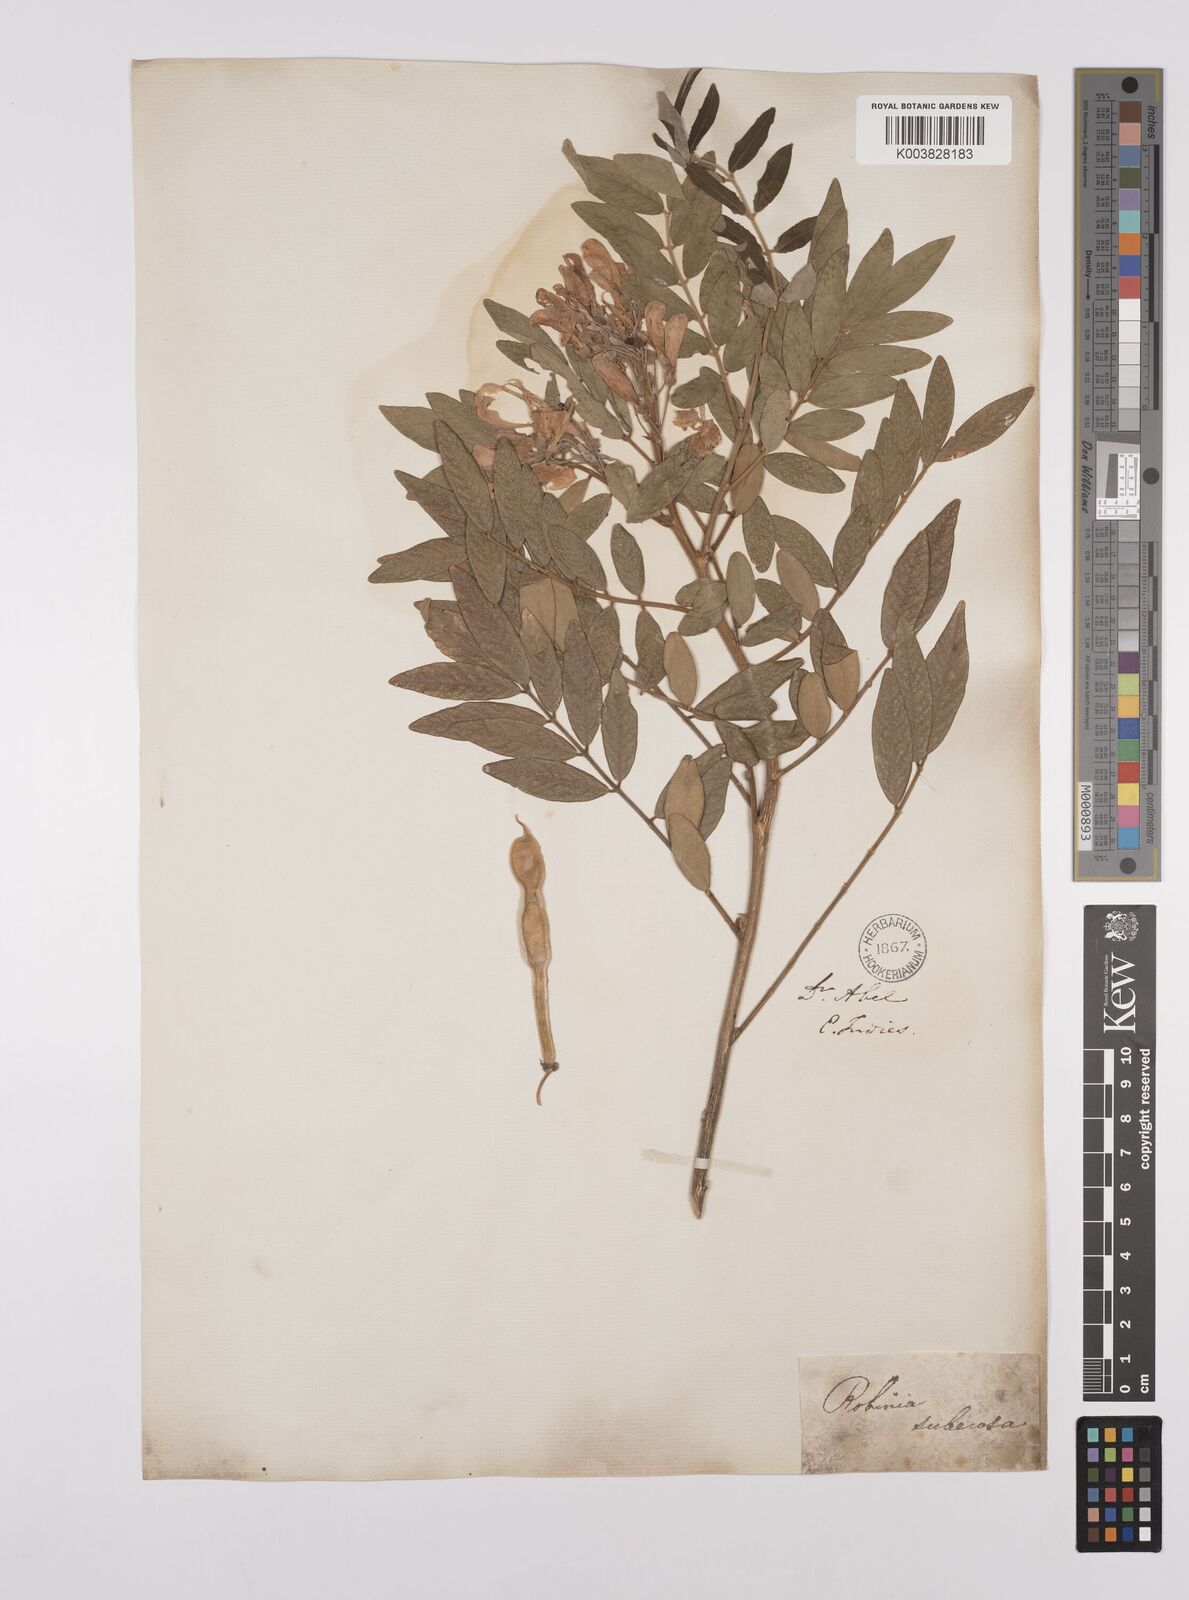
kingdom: Plantae
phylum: Tracheophyta
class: Magnoliopsida
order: Fabales
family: Fabaceae
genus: Mundulea
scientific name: Mundulea sericea
